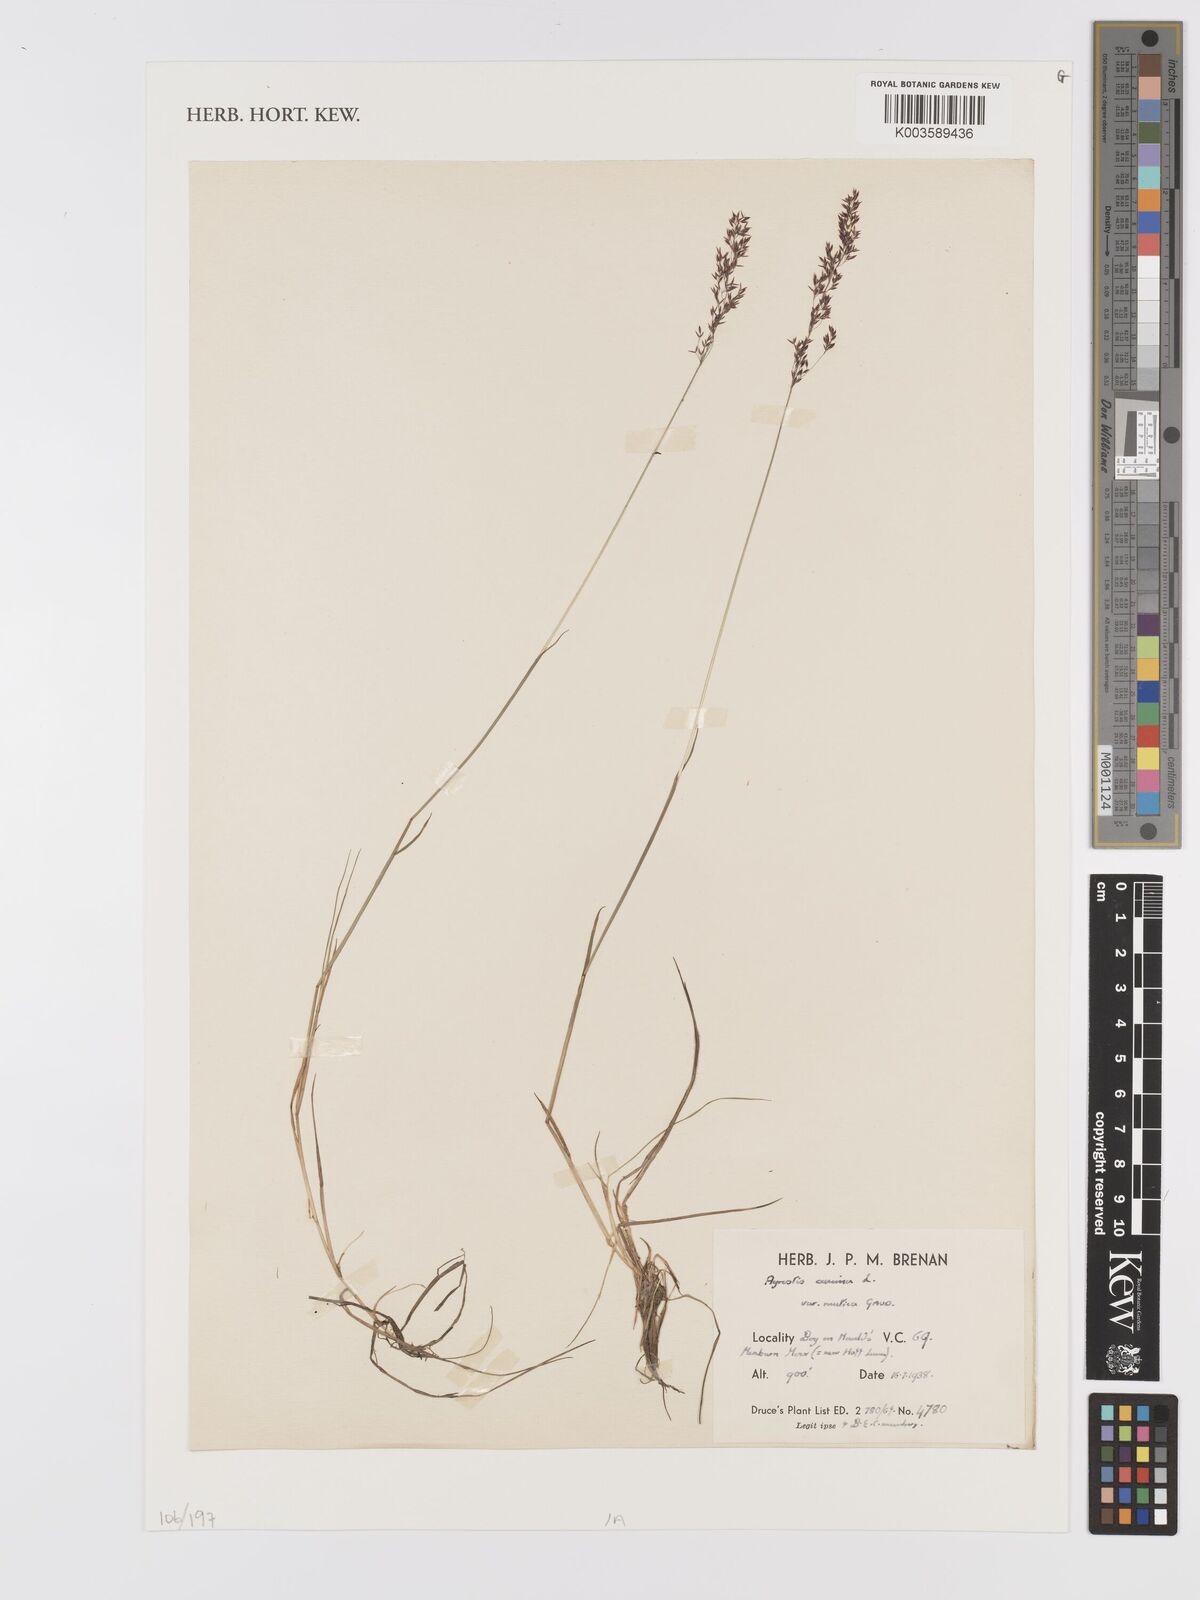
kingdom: Plantae
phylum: Tracheophyta
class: Liliopsida
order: Poales
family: Poaceae
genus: Agrostis
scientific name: Agrostis canina
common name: Velvet bent
